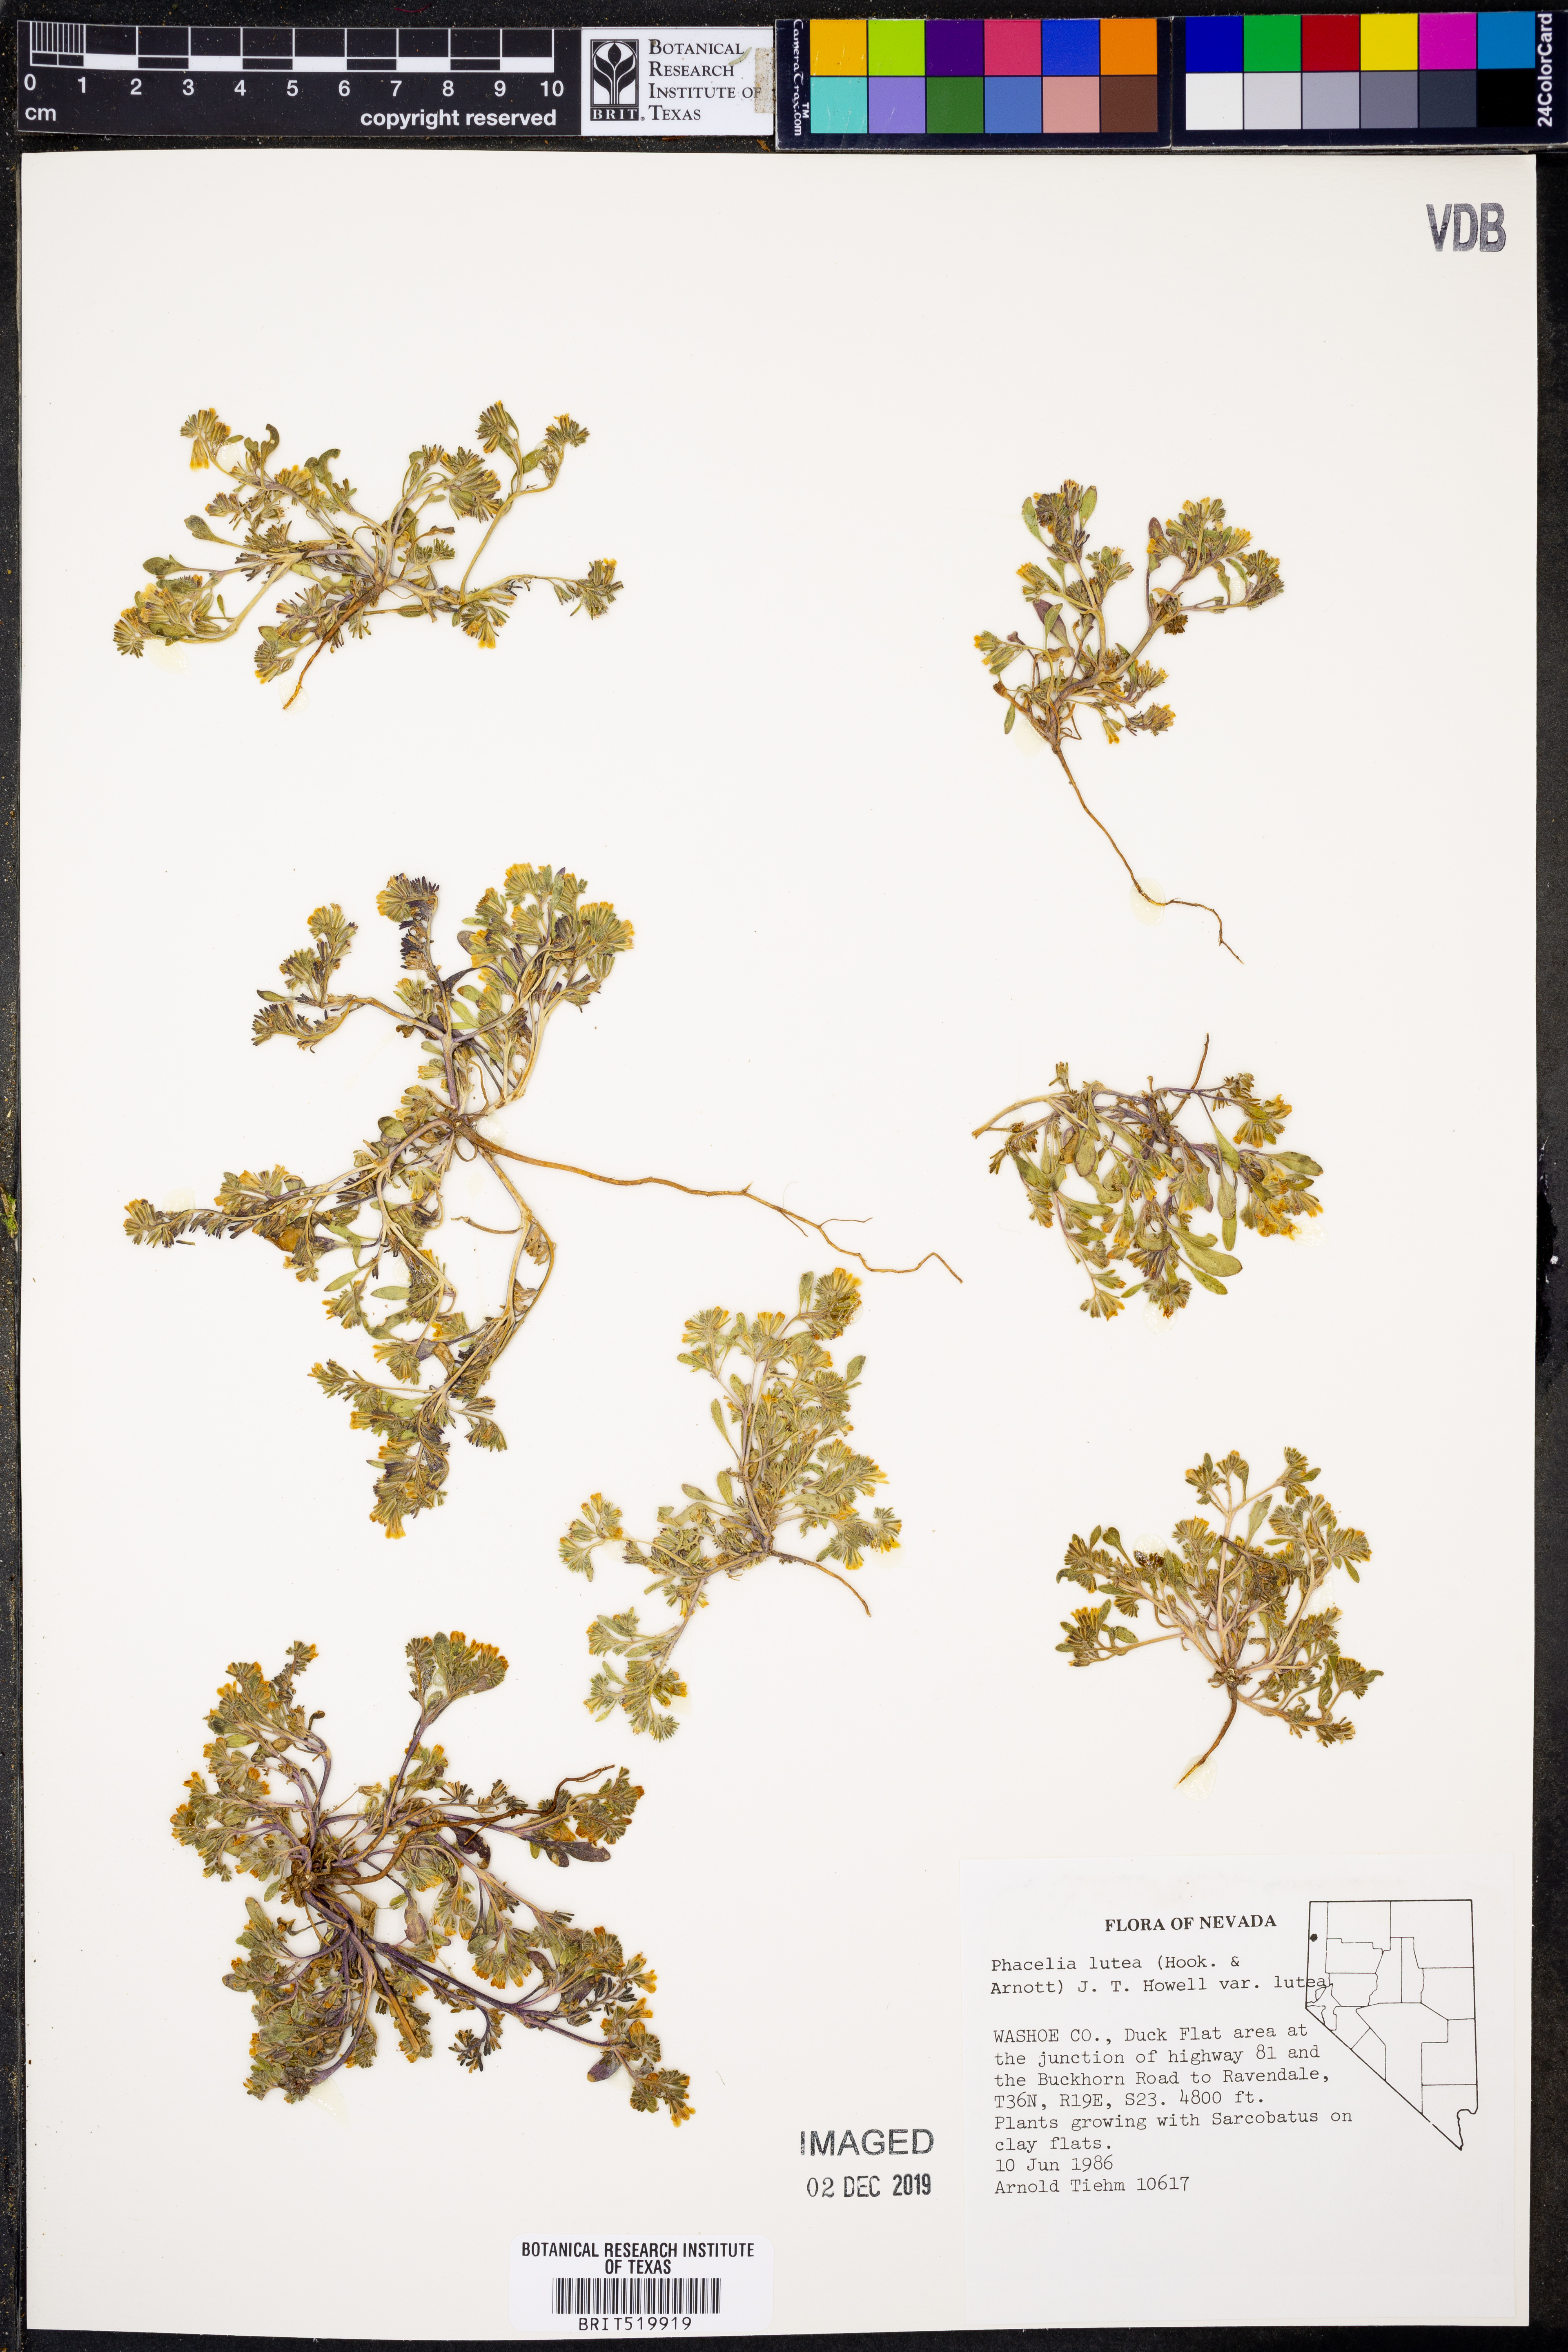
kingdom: Plantae
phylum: Tracheophyta
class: Magnoliopsida
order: Boraginales
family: Hydrophyllaceae
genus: Phacelia
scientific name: Phacelia lutea
